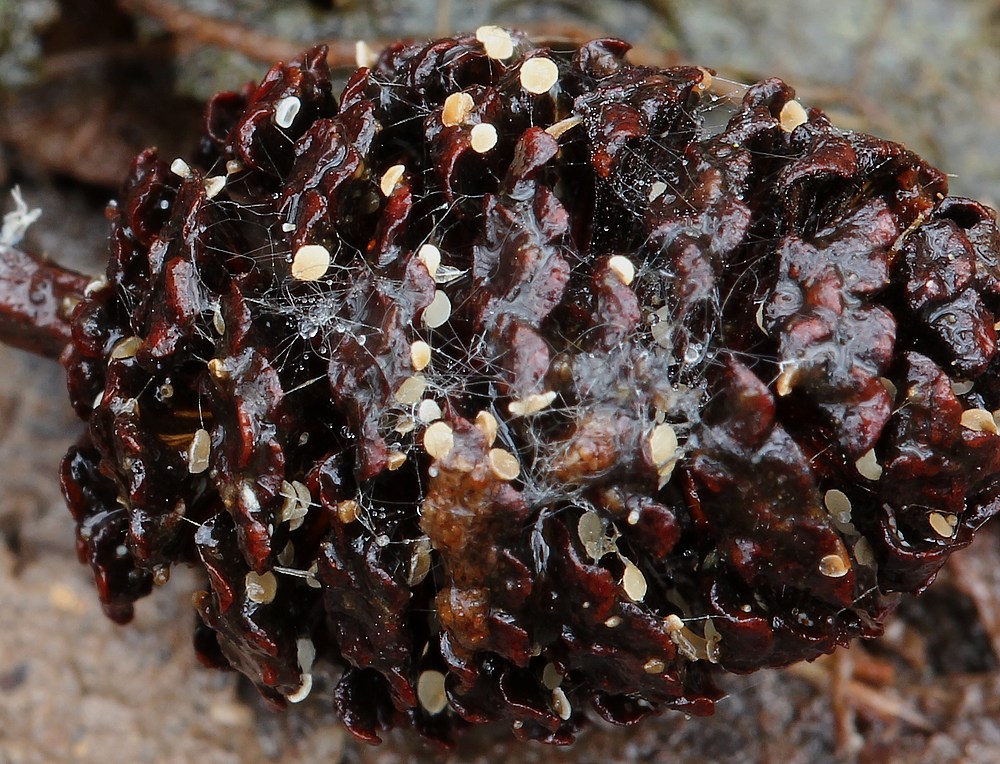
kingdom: Fungi
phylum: Ascomycota
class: Leotiomycetes
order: Helotiales
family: Mollisiaceae
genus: Mollisia
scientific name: Mollisia amenticola
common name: ellekogle-gråskive
